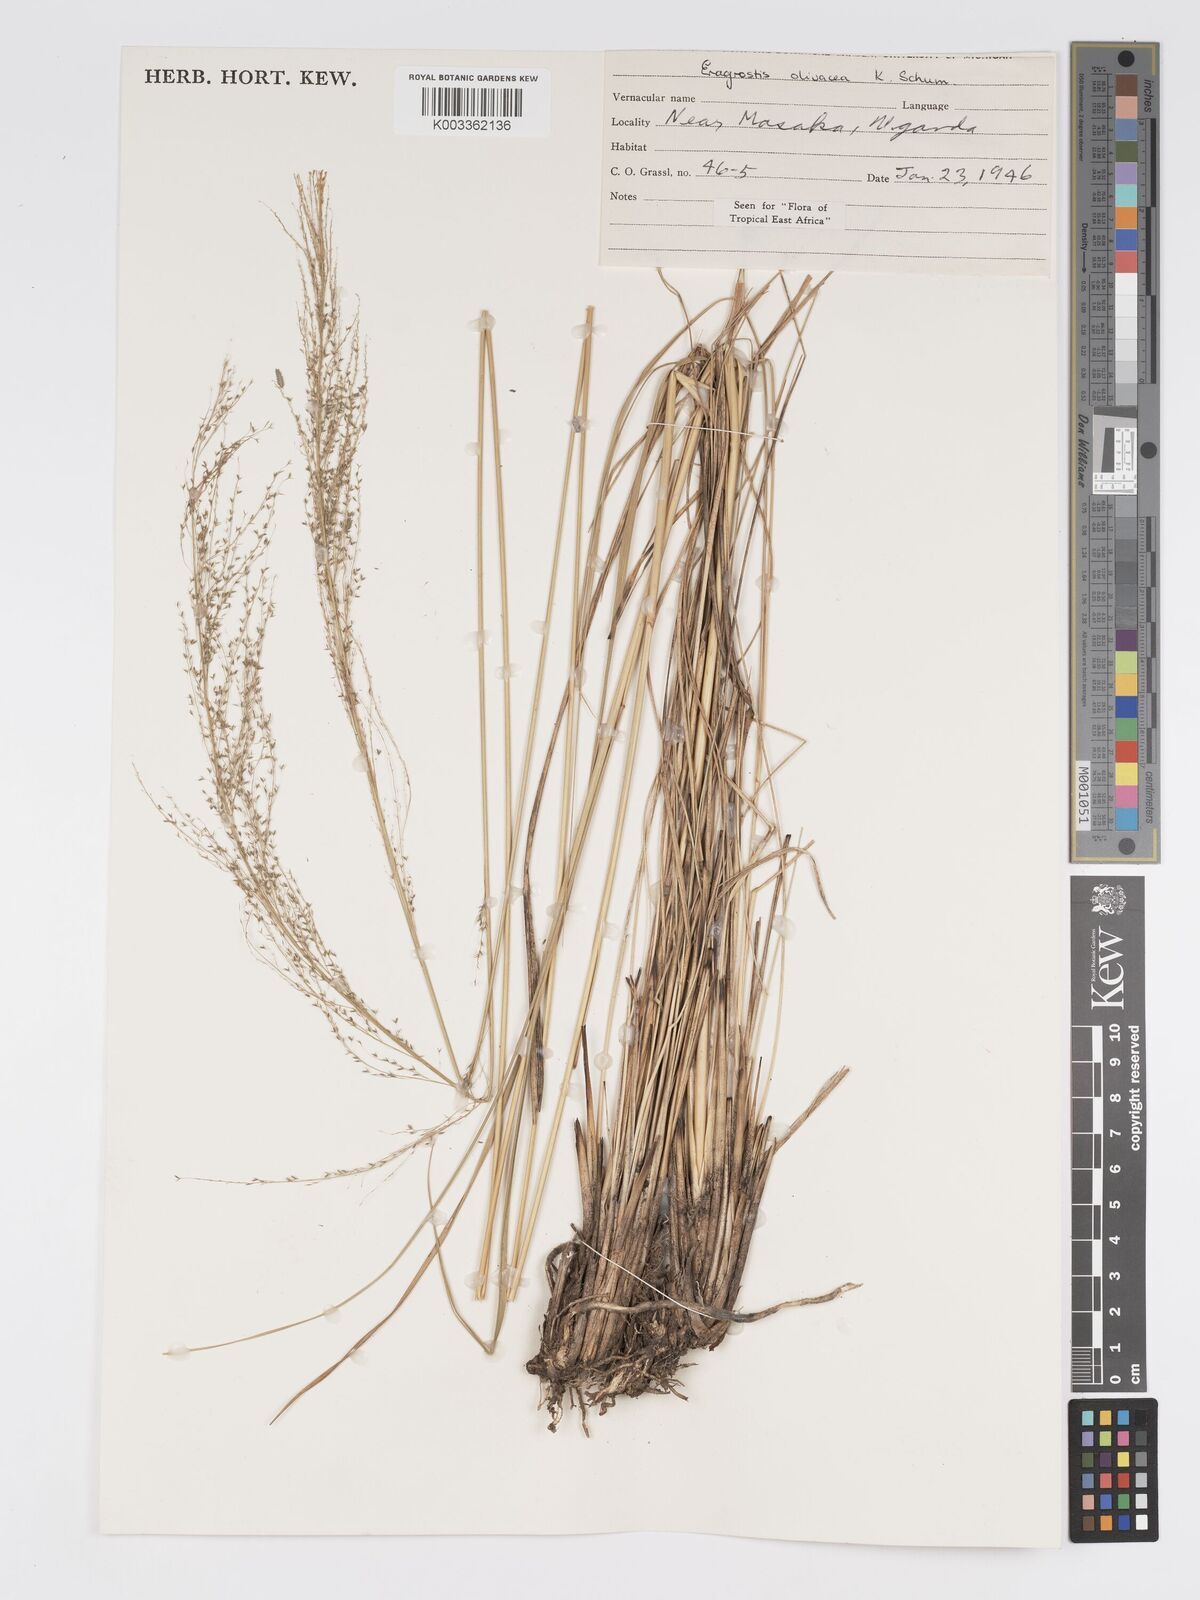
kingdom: Plantae
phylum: Tracheophyta
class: Liliopsida
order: Poales
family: Poaceae
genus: Eragrostis
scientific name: Eragrostis olivacea
